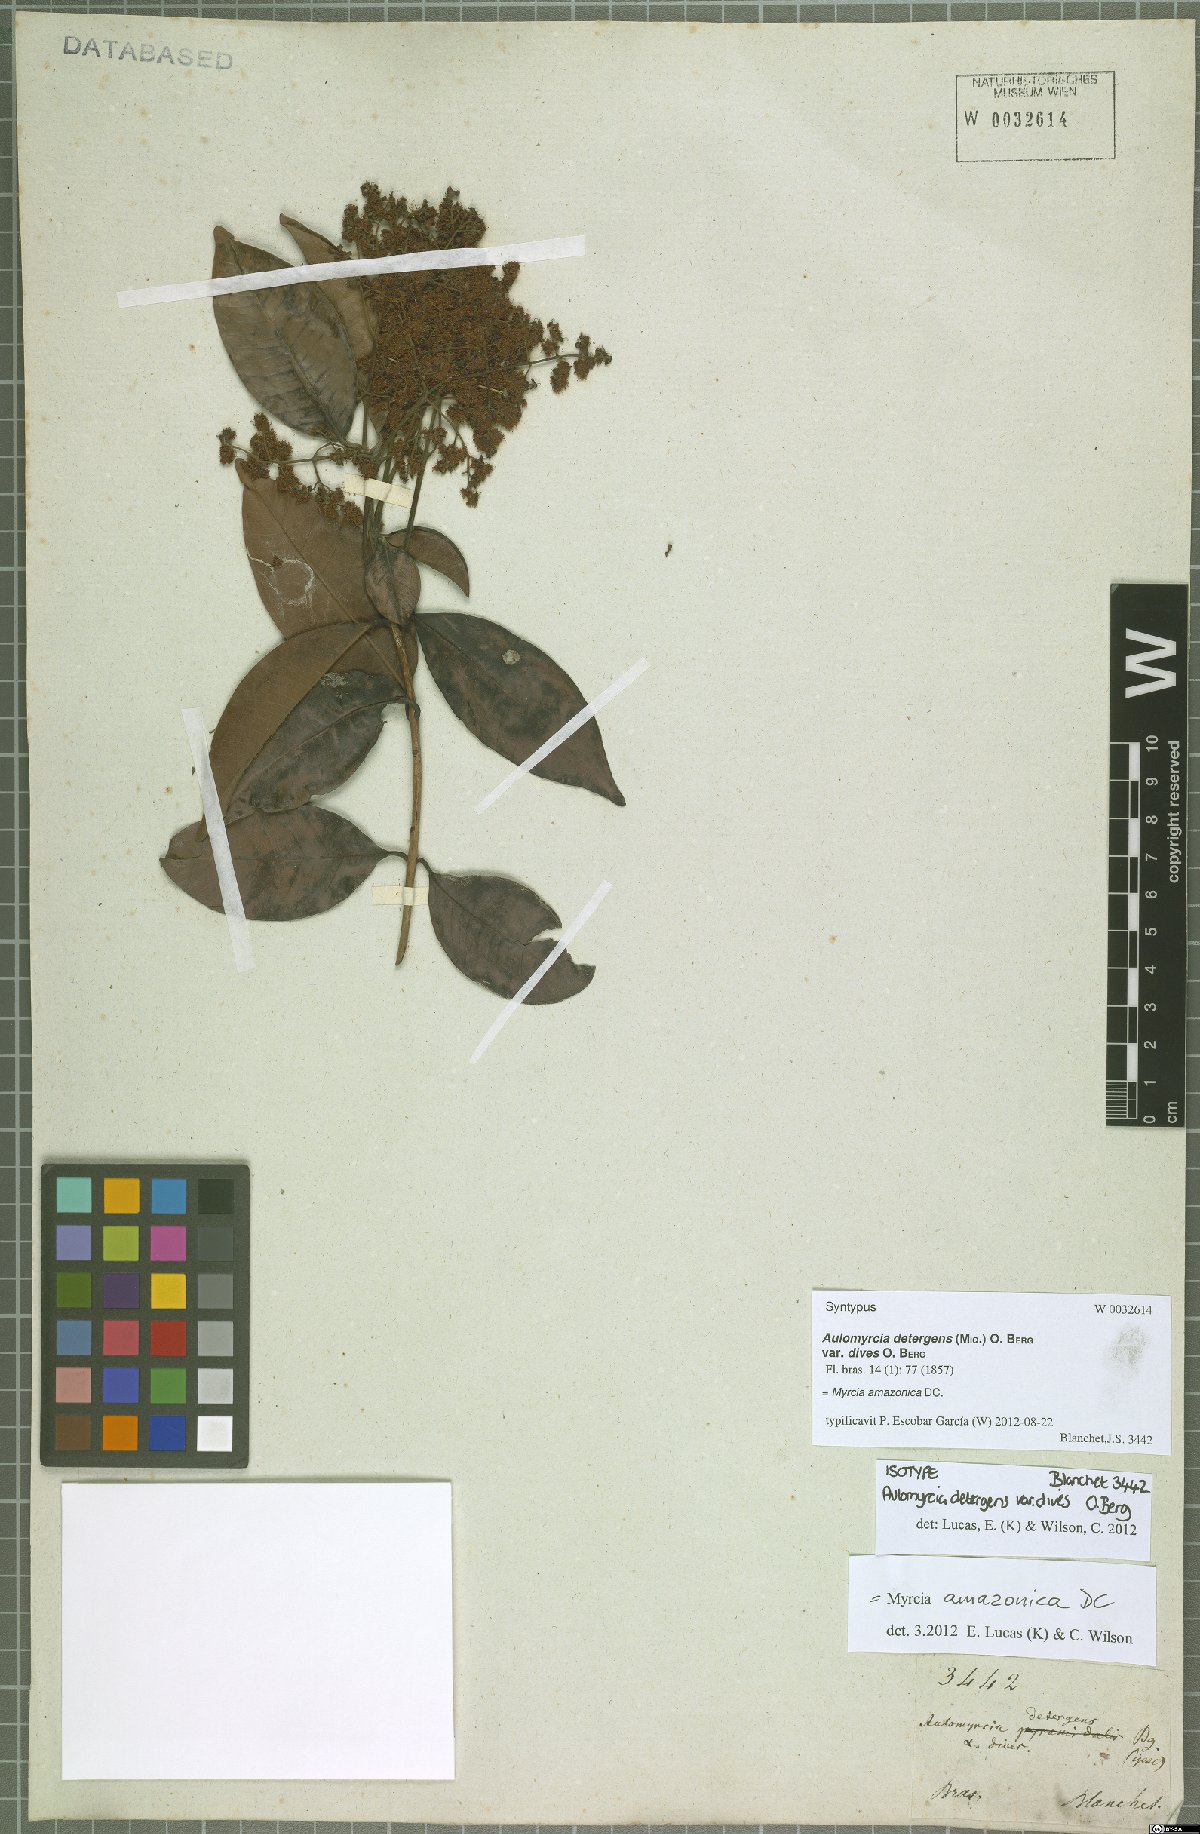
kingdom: Plantae
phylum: Tracheophyta
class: Magnoliopsida
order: Myrtales
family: Myrtaceae
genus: Myrcia
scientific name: Myrcia amazonica
